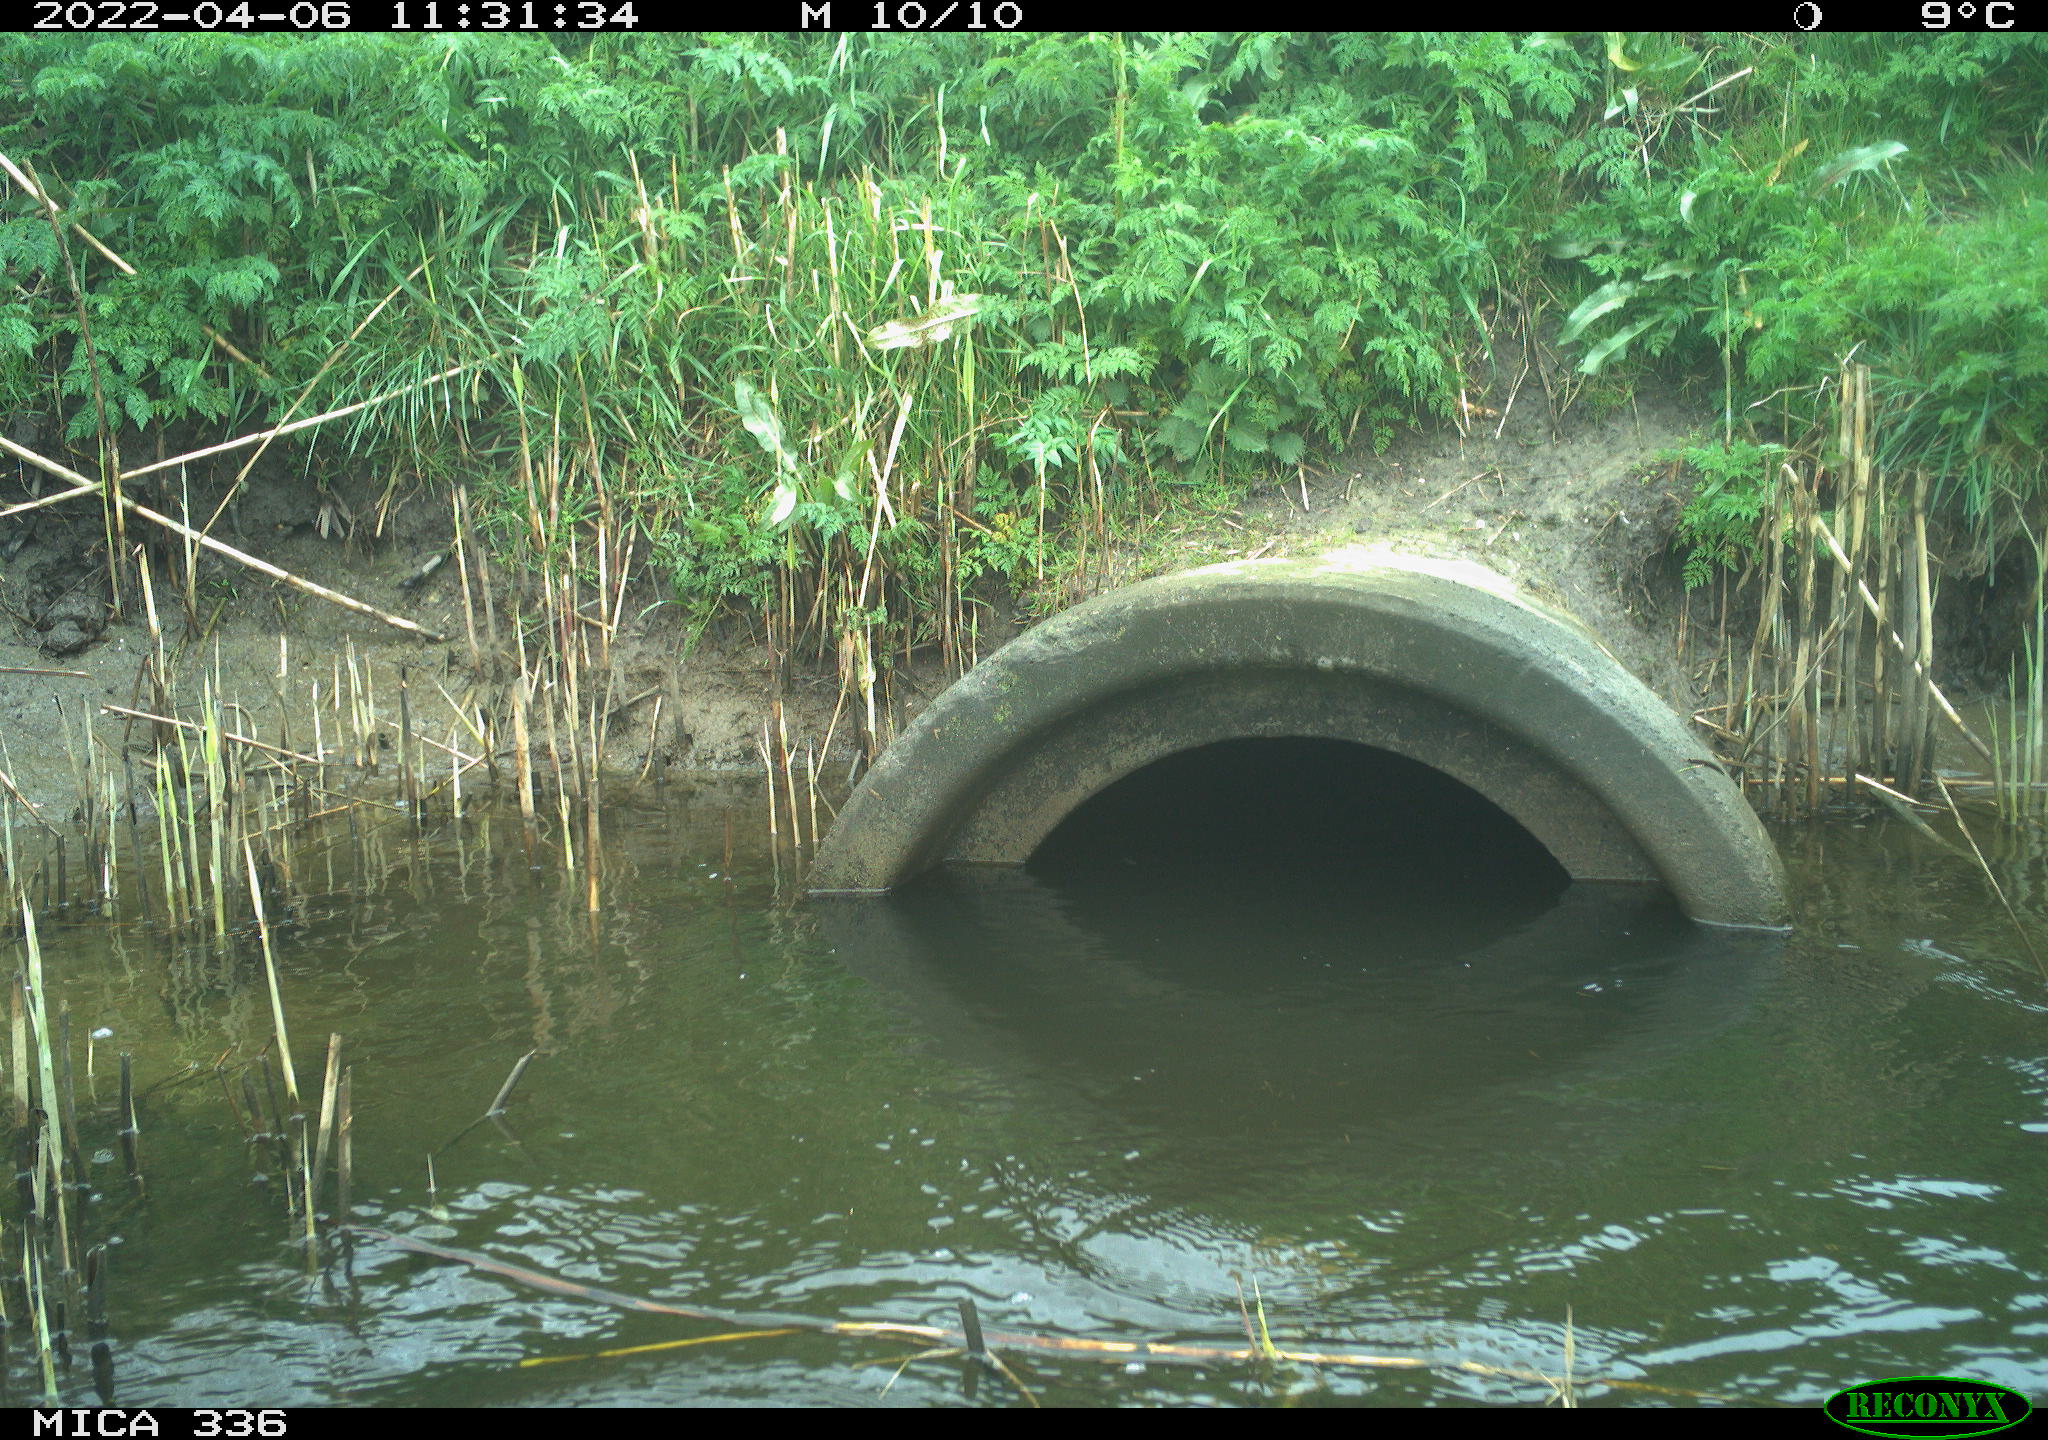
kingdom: Animalia
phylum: Chordata
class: Aves
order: Suliformes
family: Phalacrocoracidae
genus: Phalacrocorax
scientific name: Phalacrocorax carbo
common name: Great cormorant
